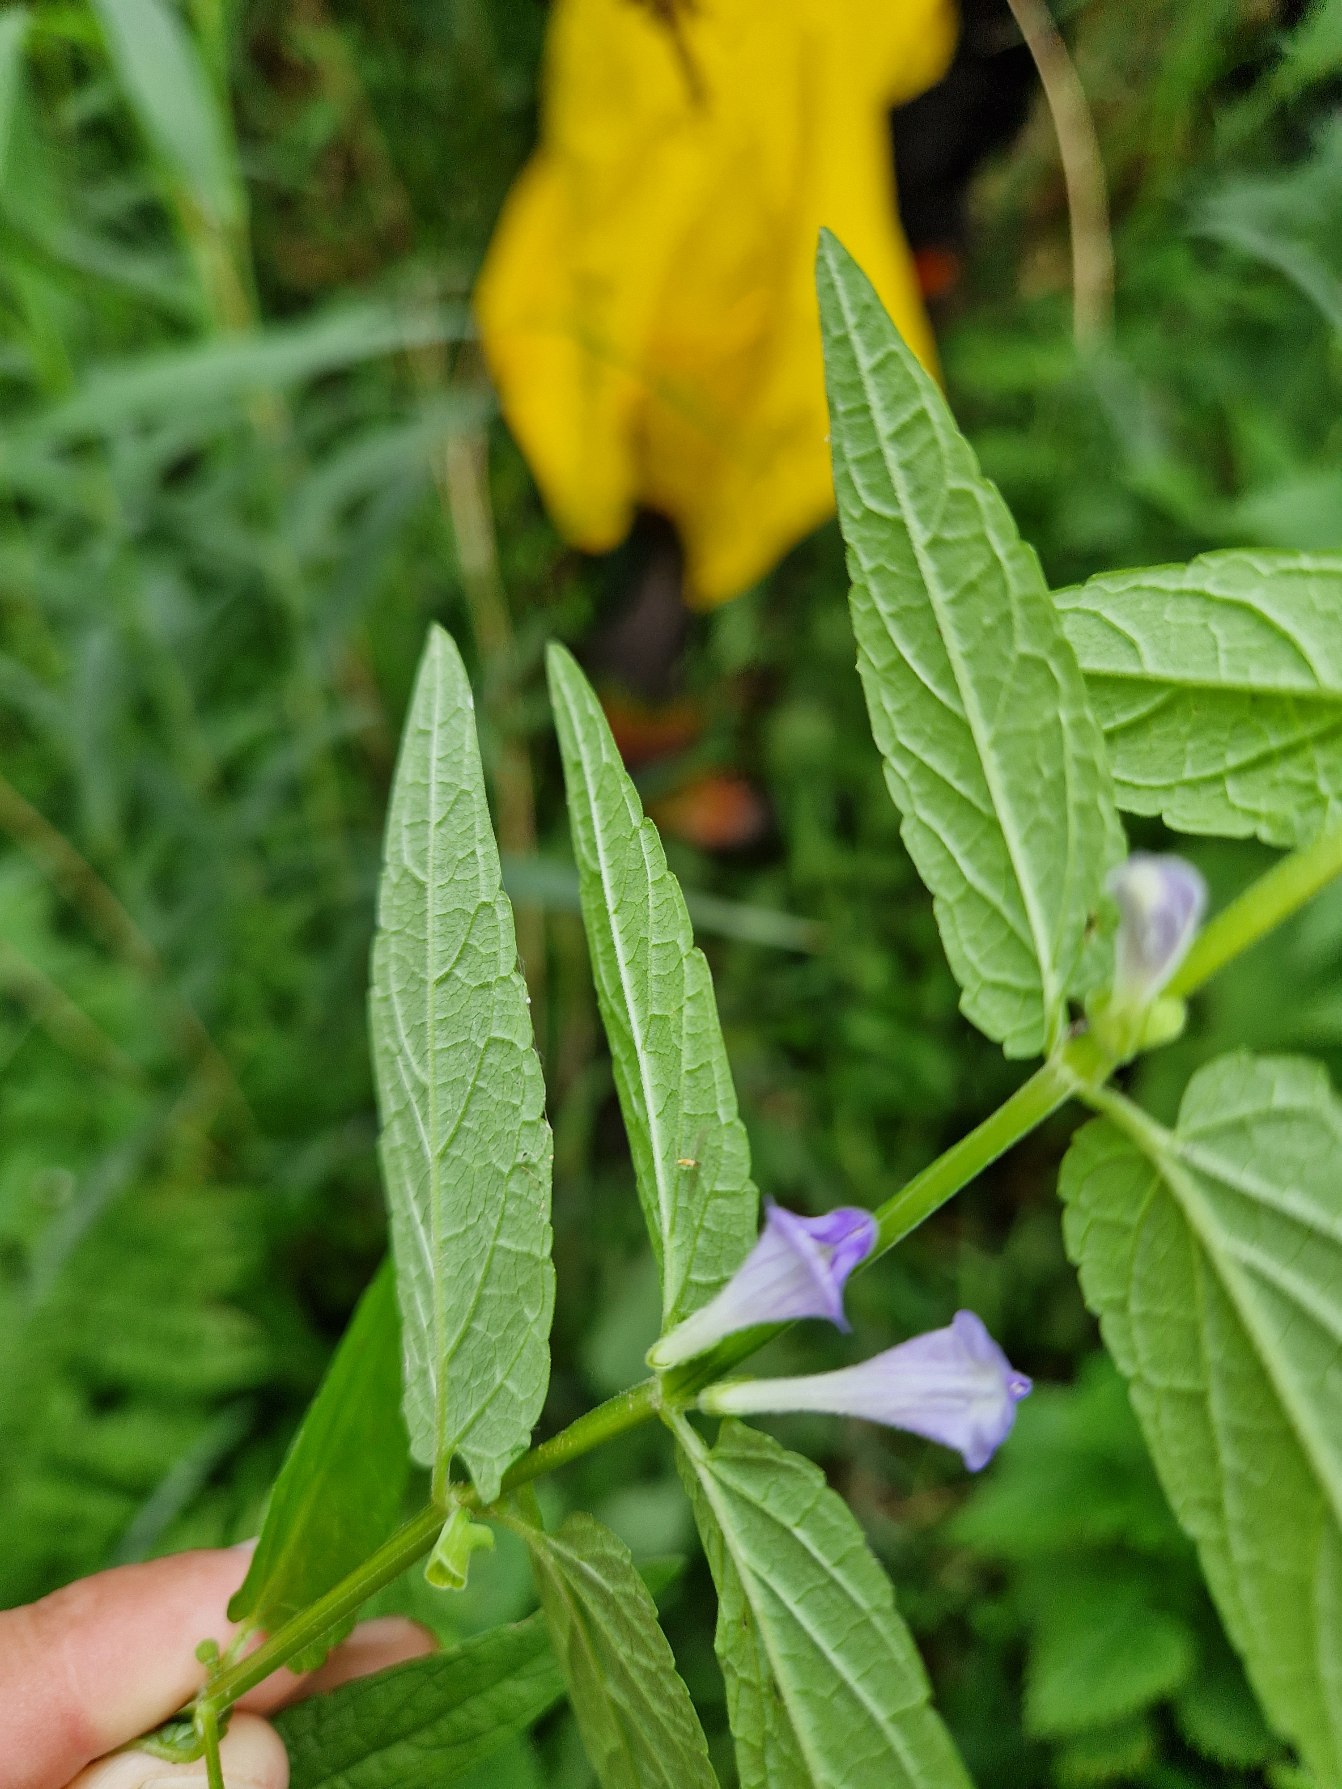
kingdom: Plantae
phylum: Tracheophyta
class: Magnoliopsida
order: Lamiales
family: Lamiaceae
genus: Scutellaria
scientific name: Scutellaria galericulata
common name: Almindelig skjolddrager
